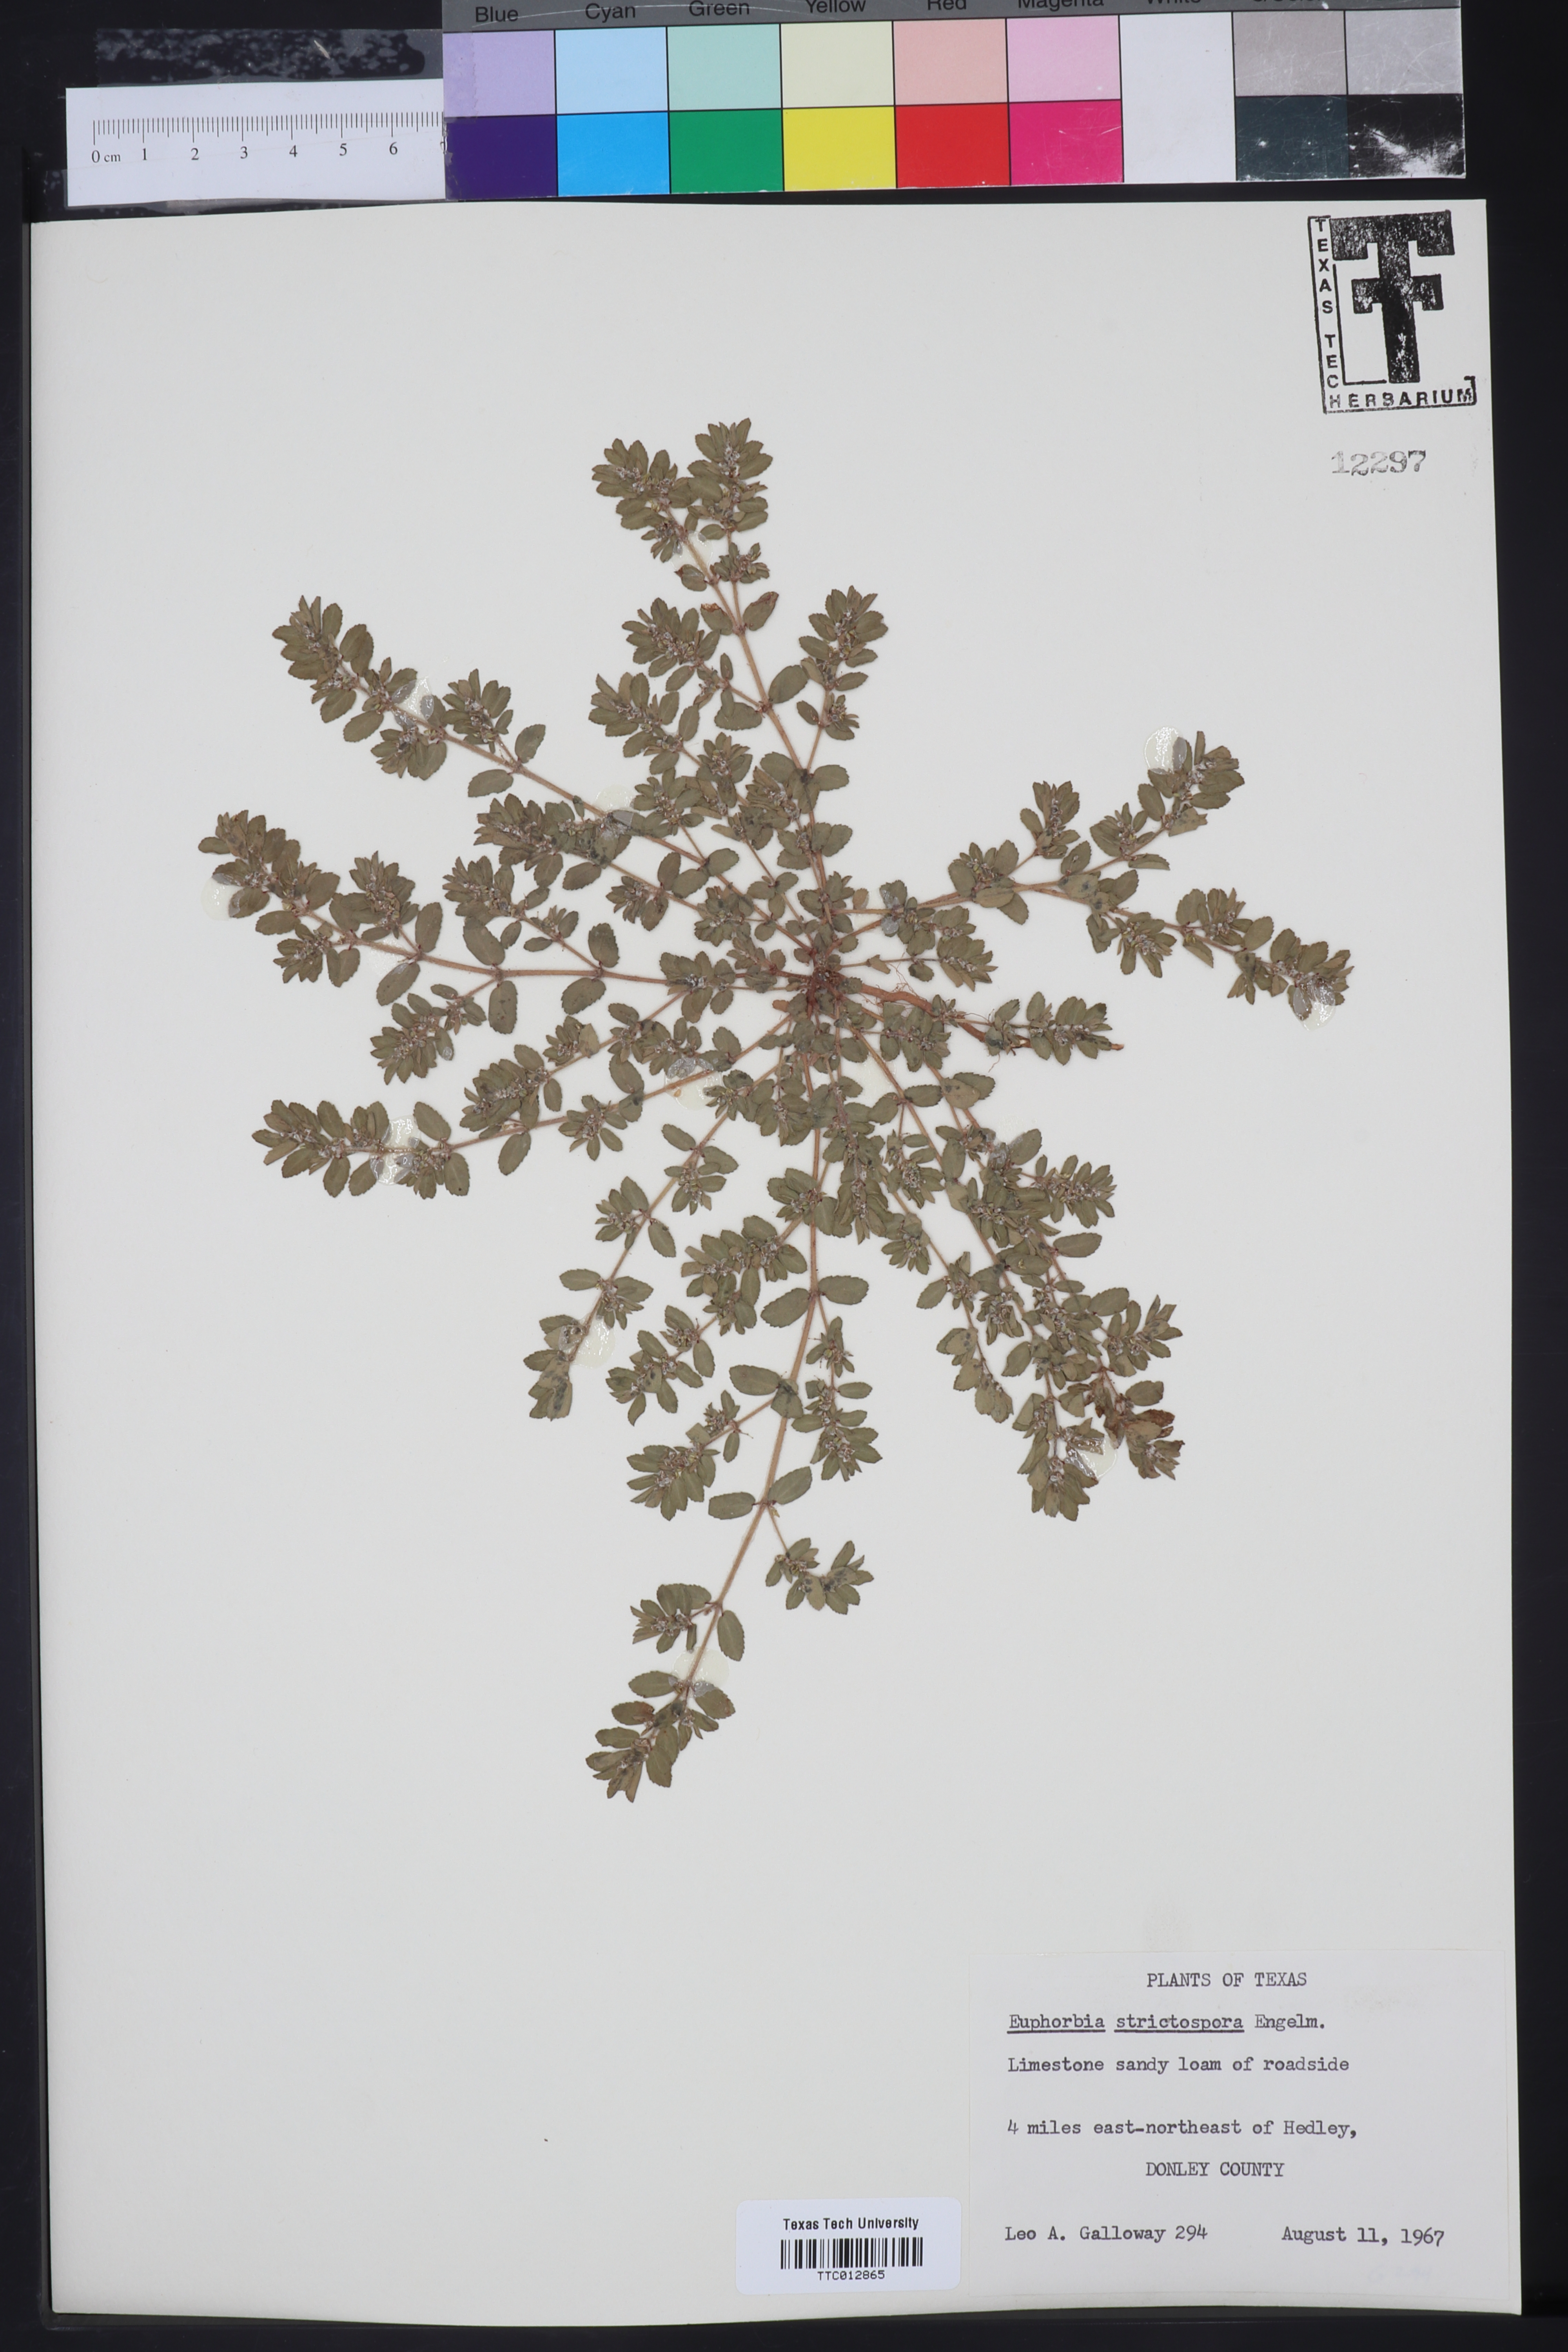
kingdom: Plantae
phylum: Tracheophyta
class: Magnoliopsida
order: Malpighiales
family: Euphorbiaceae
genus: Euphorbia
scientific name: Euphorbia
